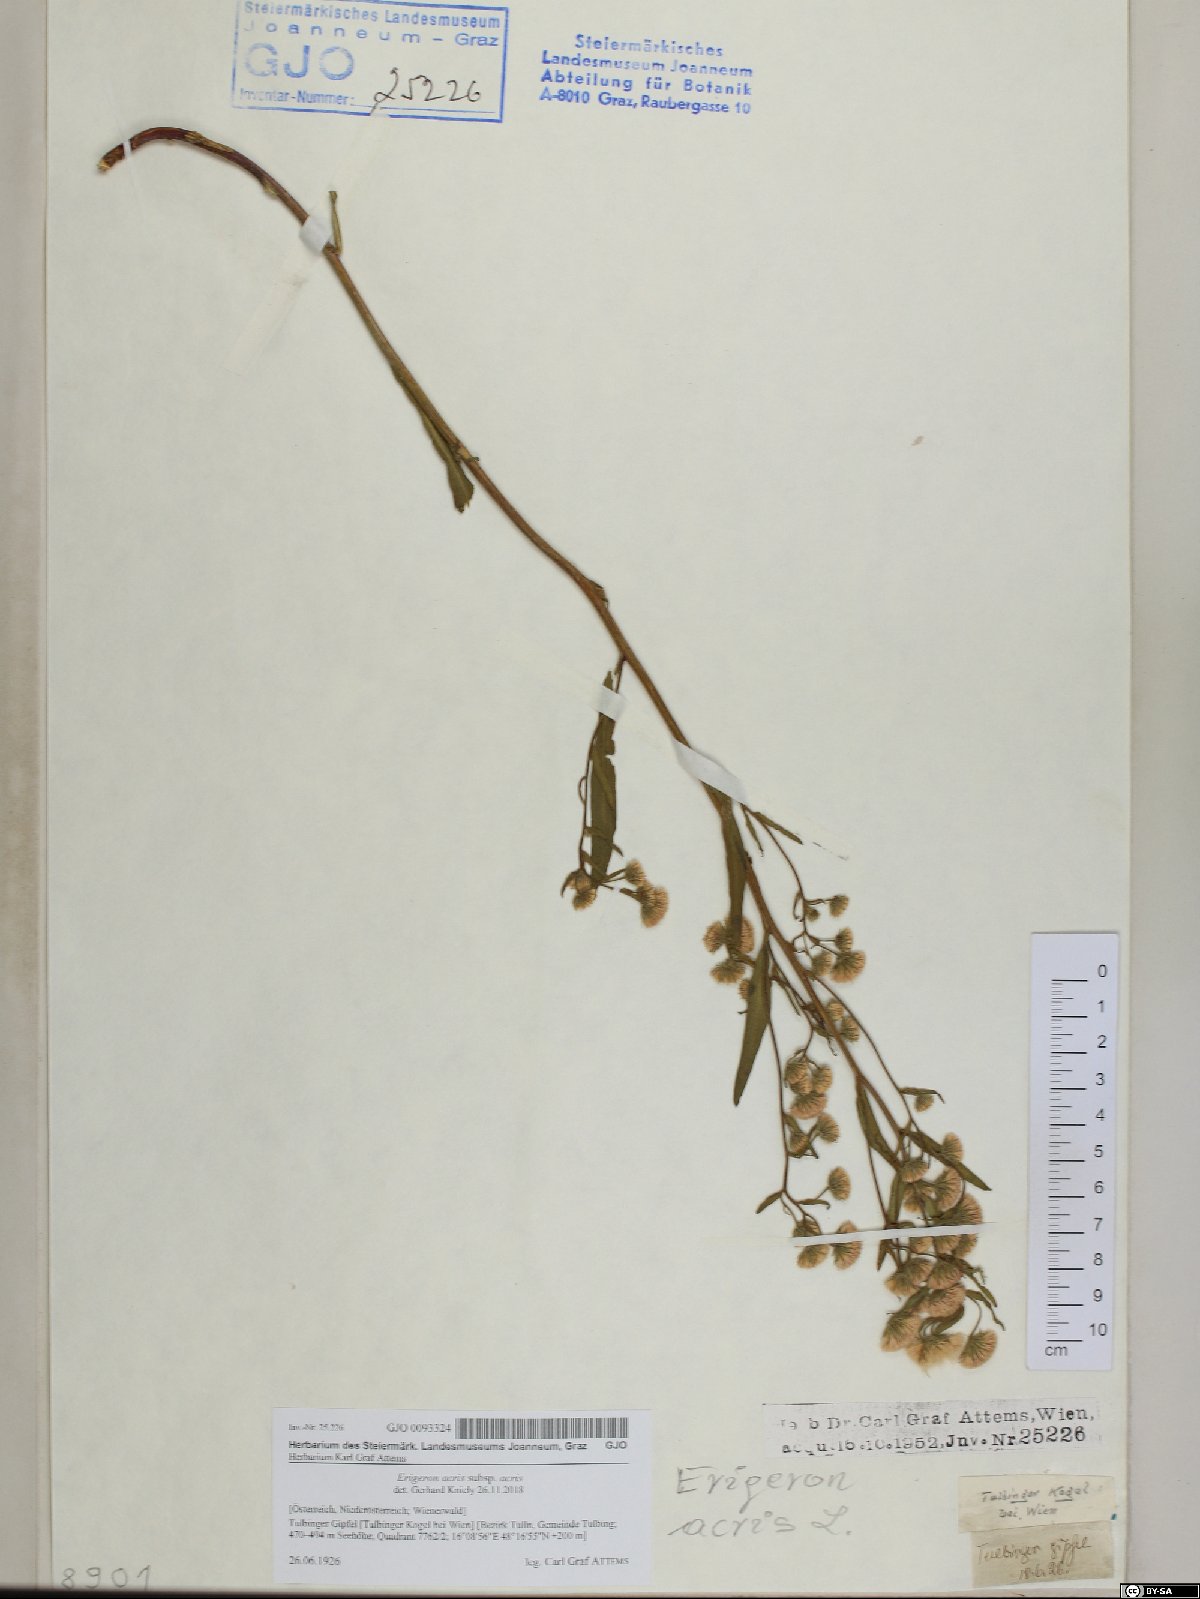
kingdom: Plantae
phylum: Tracheophyta
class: Magnoliopsida
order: Asterales
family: Asteraceae
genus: Erigeron
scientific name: Erigeron acris
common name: Blue fleabane
